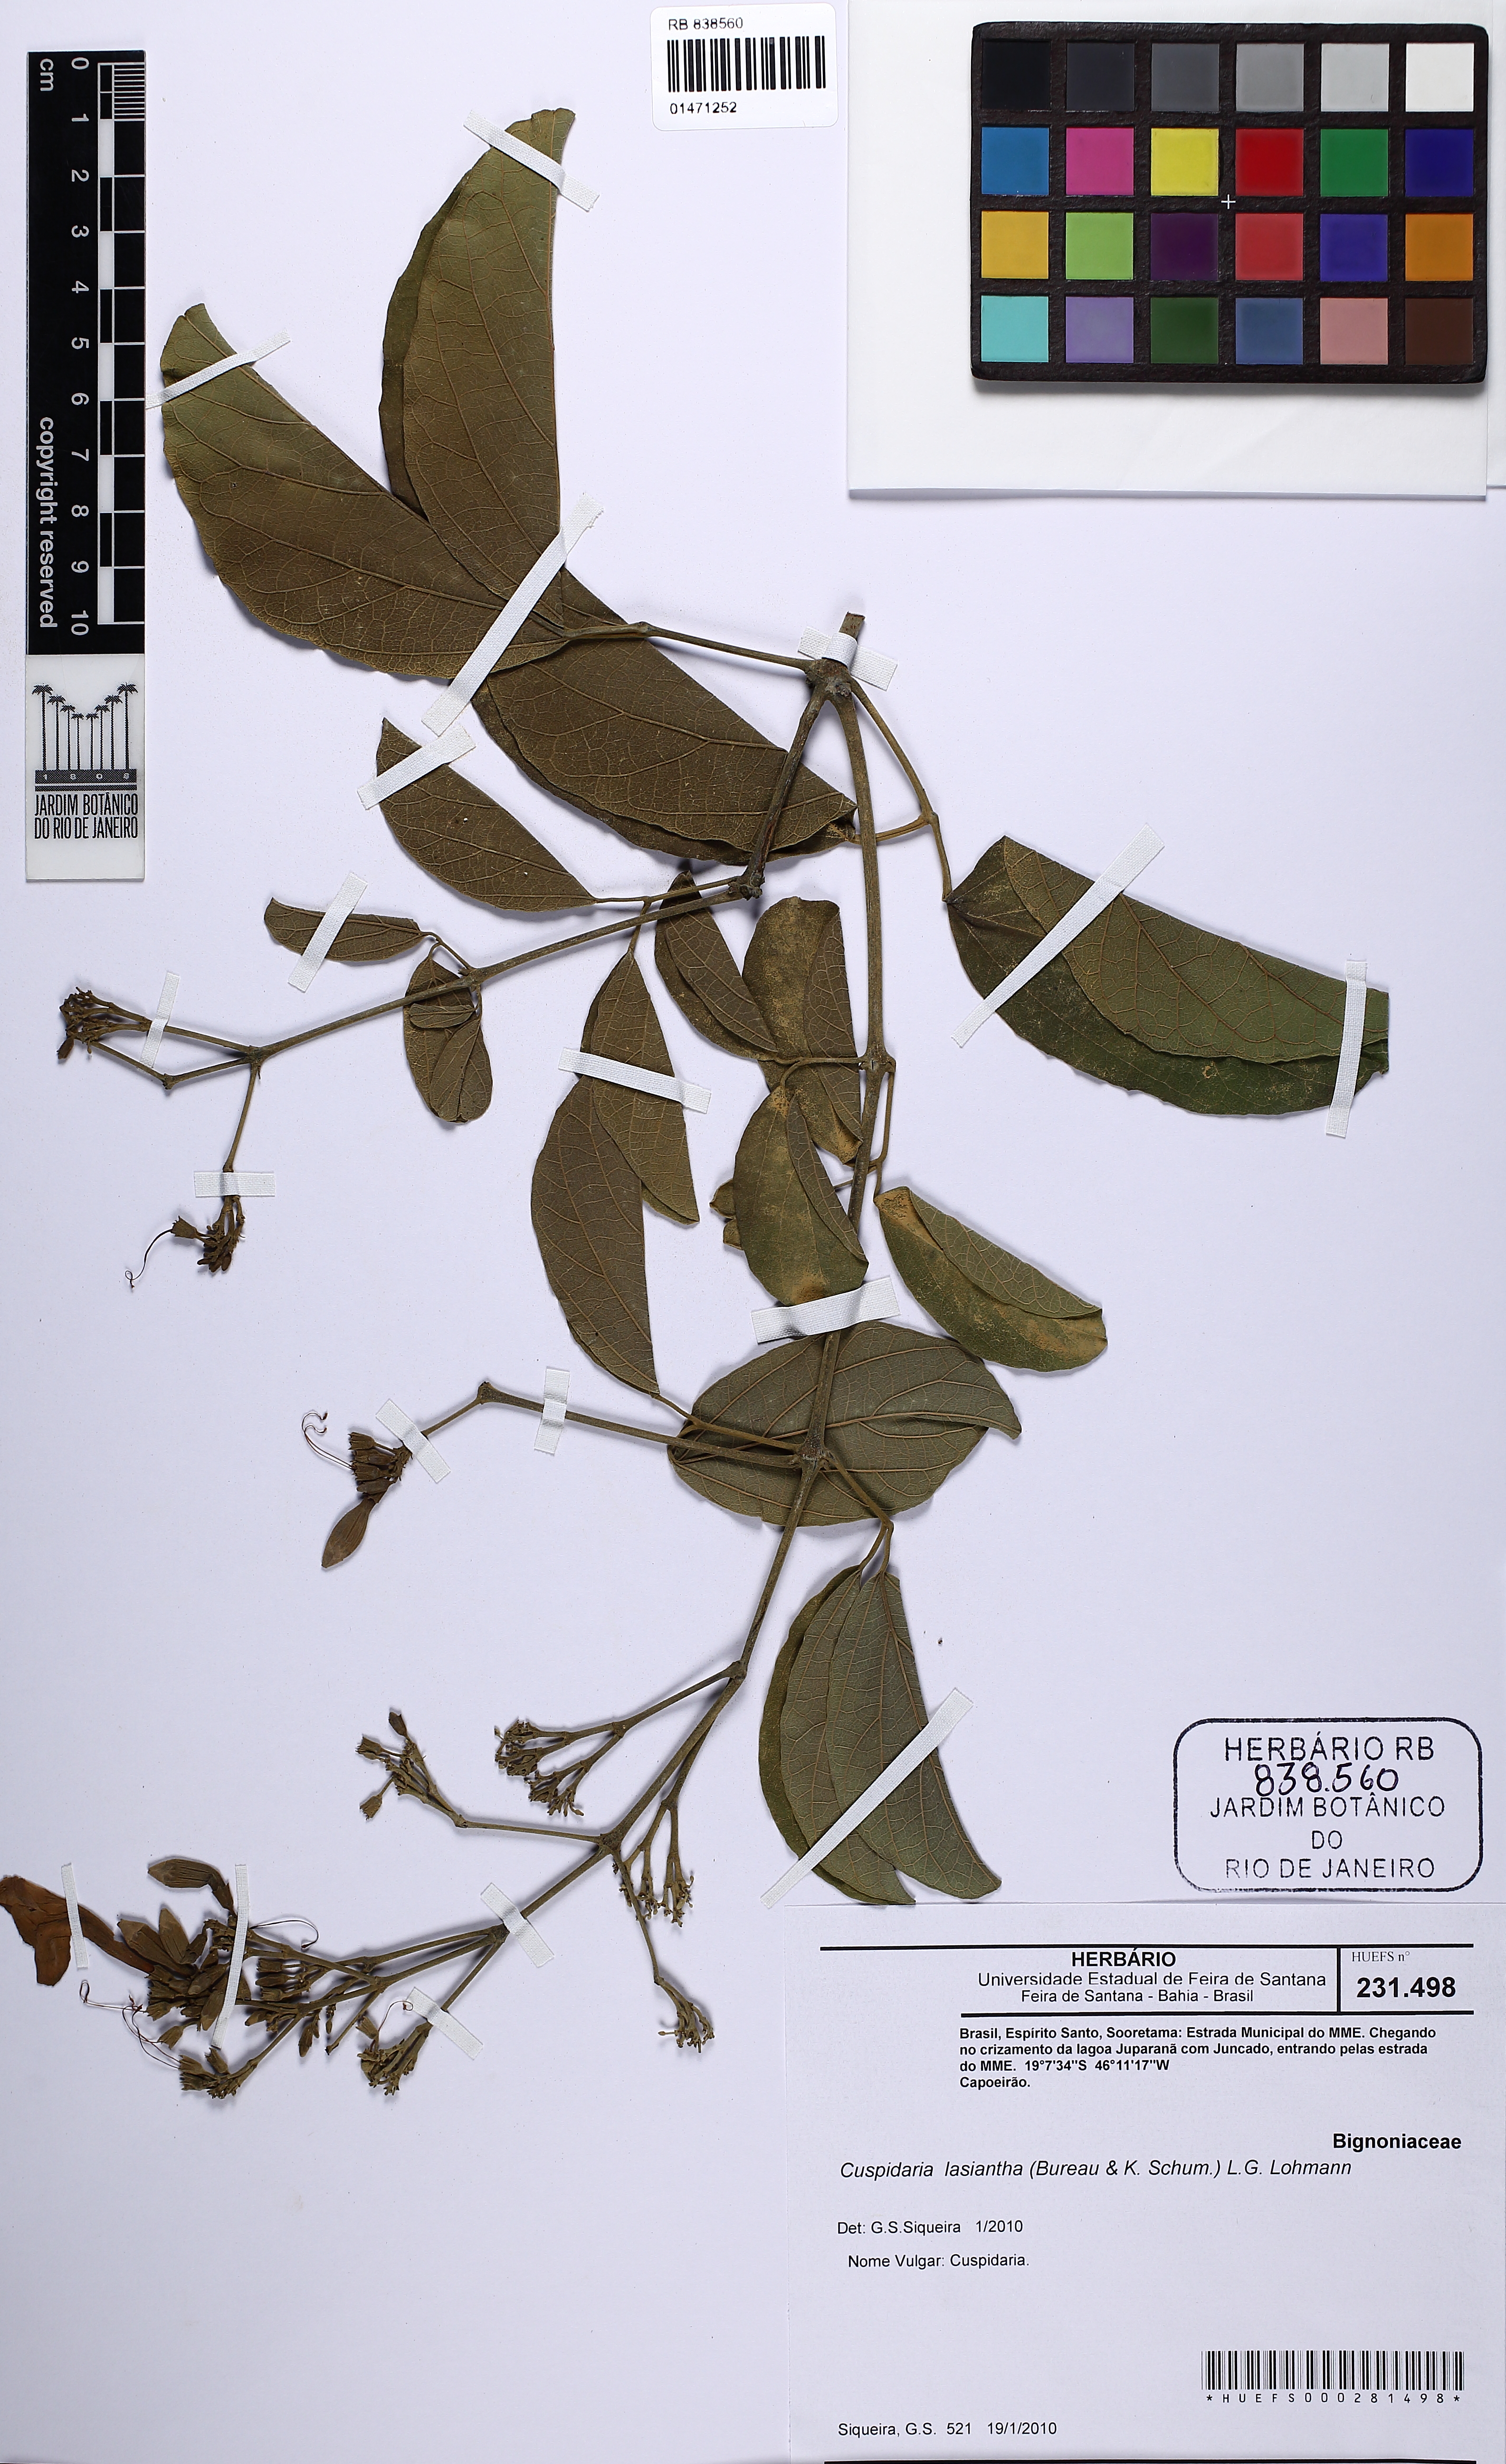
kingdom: Plantae
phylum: Tracheophyta
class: Magnoliopsida
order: Lamiales
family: Bignoniaceae
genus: Cuspidaria
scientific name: Cuspidaria lasiantha
